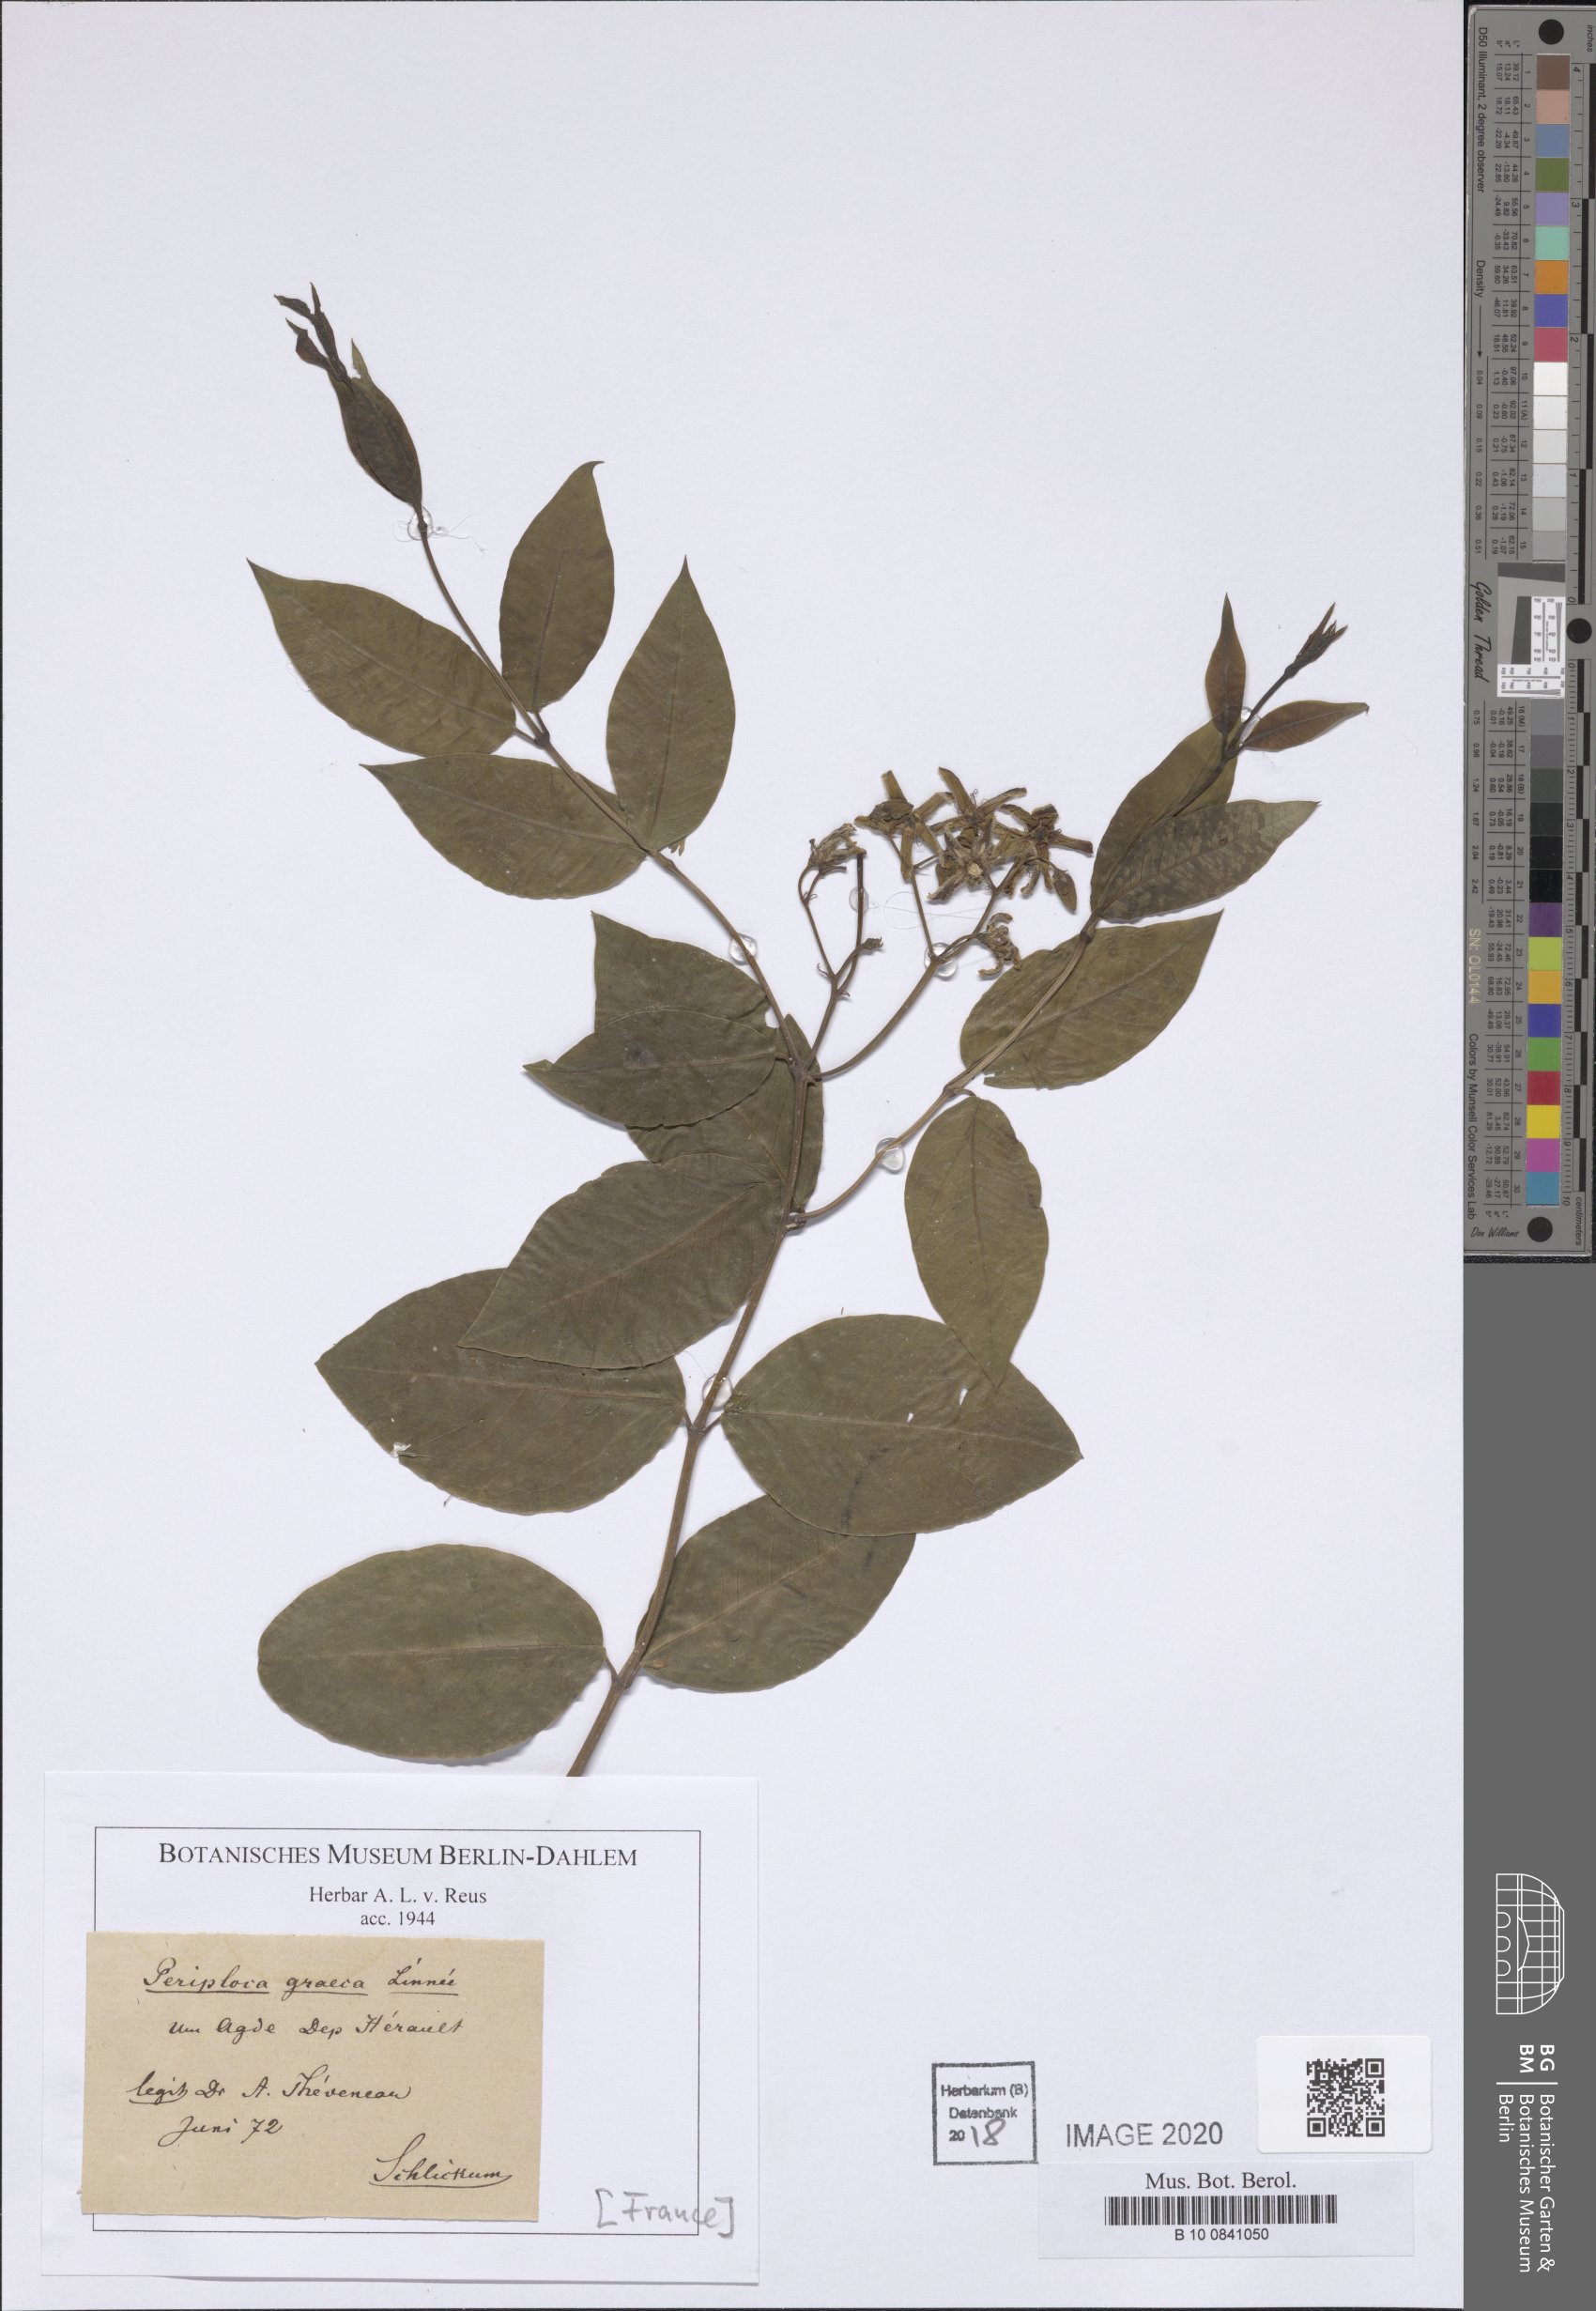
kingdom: Plantae
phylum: Tracheophyta
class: Magnoliopsida
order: Gentianales
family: Apocynaceae
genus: Periploca
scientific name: Periploca graeca
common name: Silkvine
